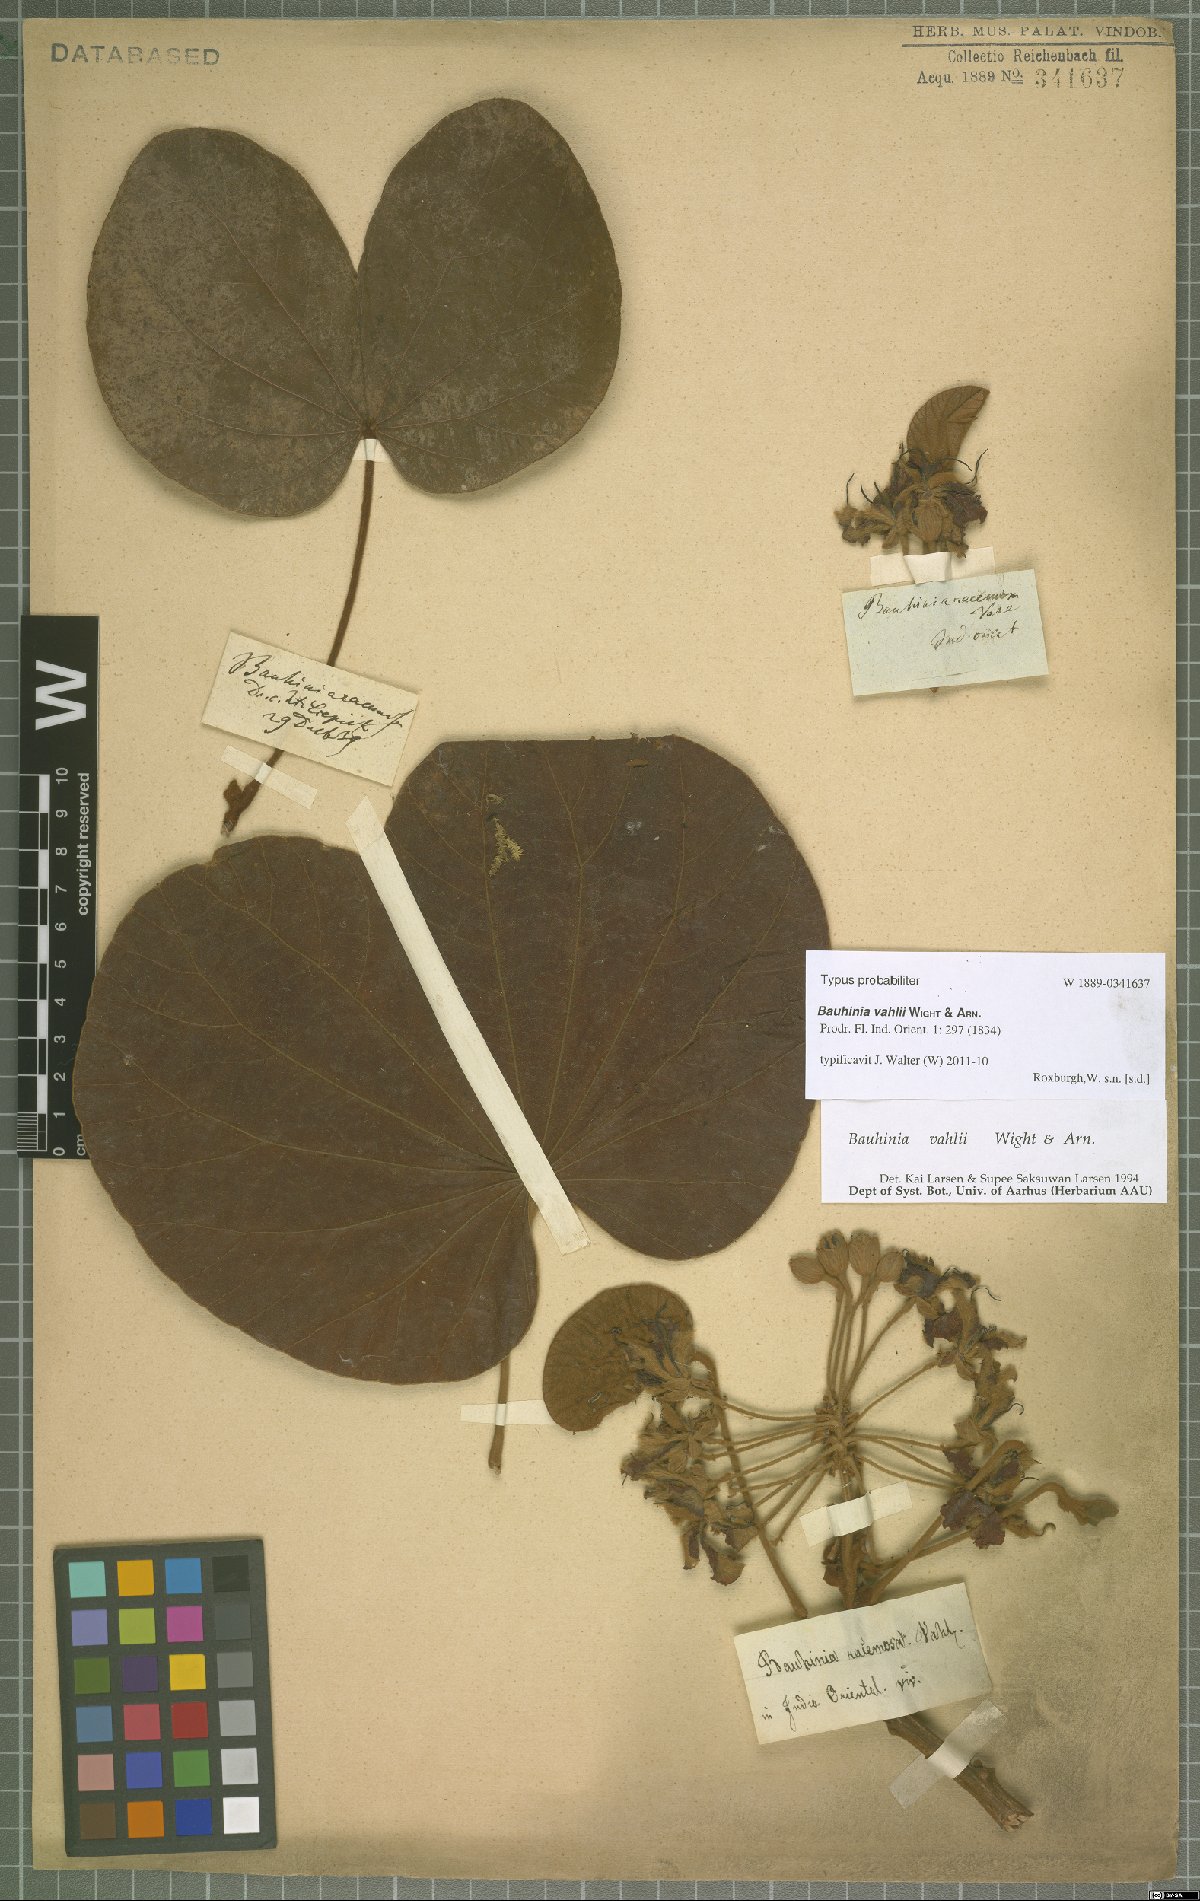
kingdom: Plantae
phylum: Tracheophyta
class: Magnoliopsida
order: Fabales
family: Fabaceae
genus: Phanera
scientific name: Phanera vahlii
